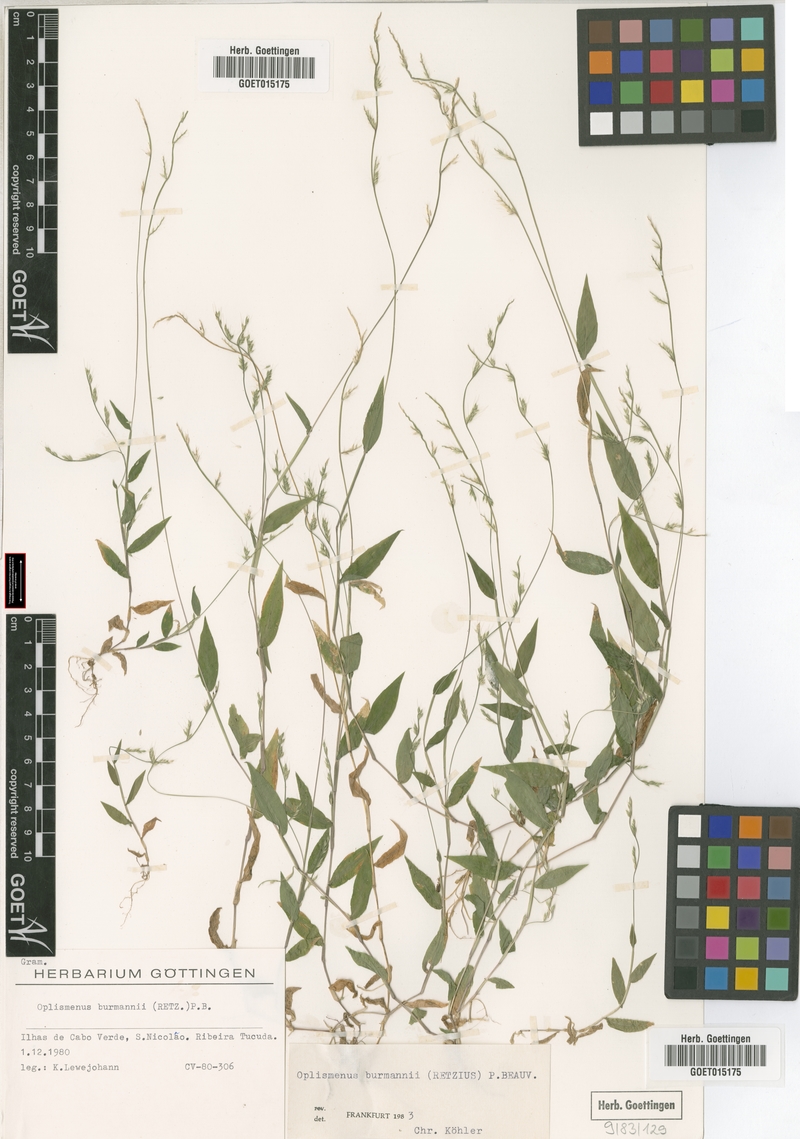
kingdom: Plantae
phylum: Tracheophyta
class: Liliopsida
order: Poales
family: Poaceae
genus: Oplismenus
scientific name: Oplismenus burmanni
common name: Burmann's basketgrass
